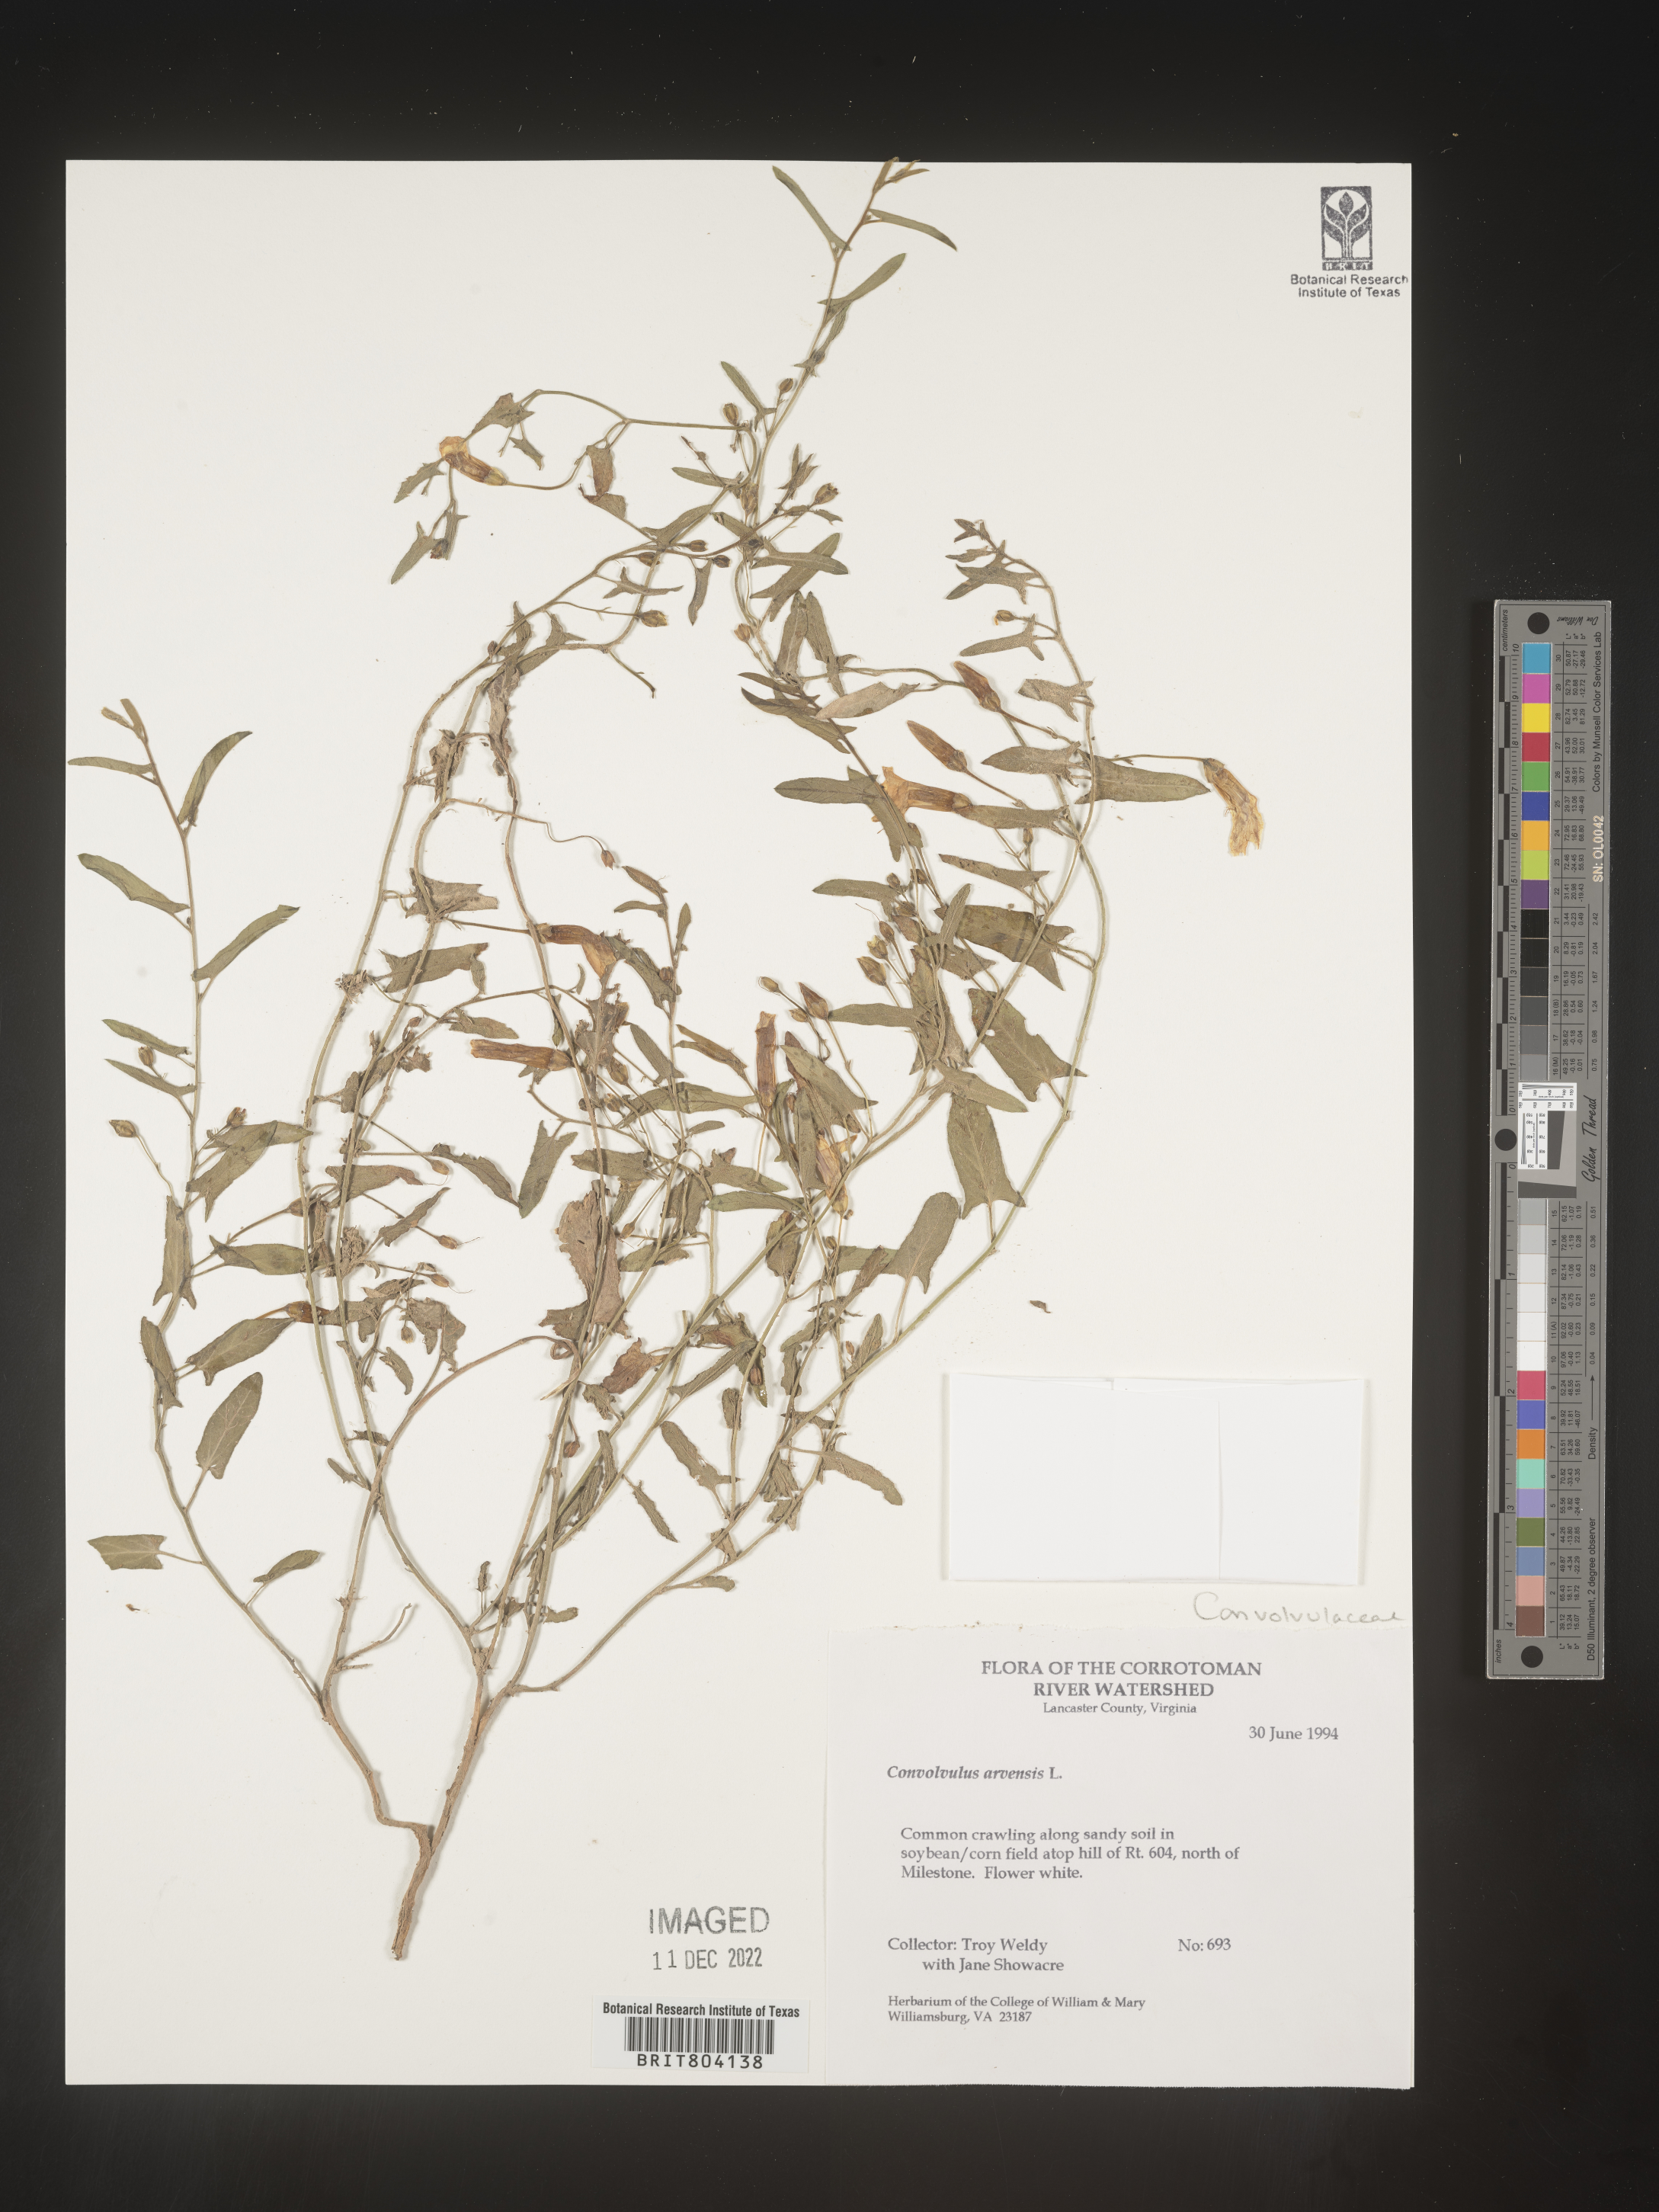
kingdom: Plantae
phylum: Tracheophyta
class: Magnoliopsida
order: Solanales
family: Convolvulaceae
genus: Convolvulus
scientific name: Convolvulus arvensis
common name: Field bindweed
